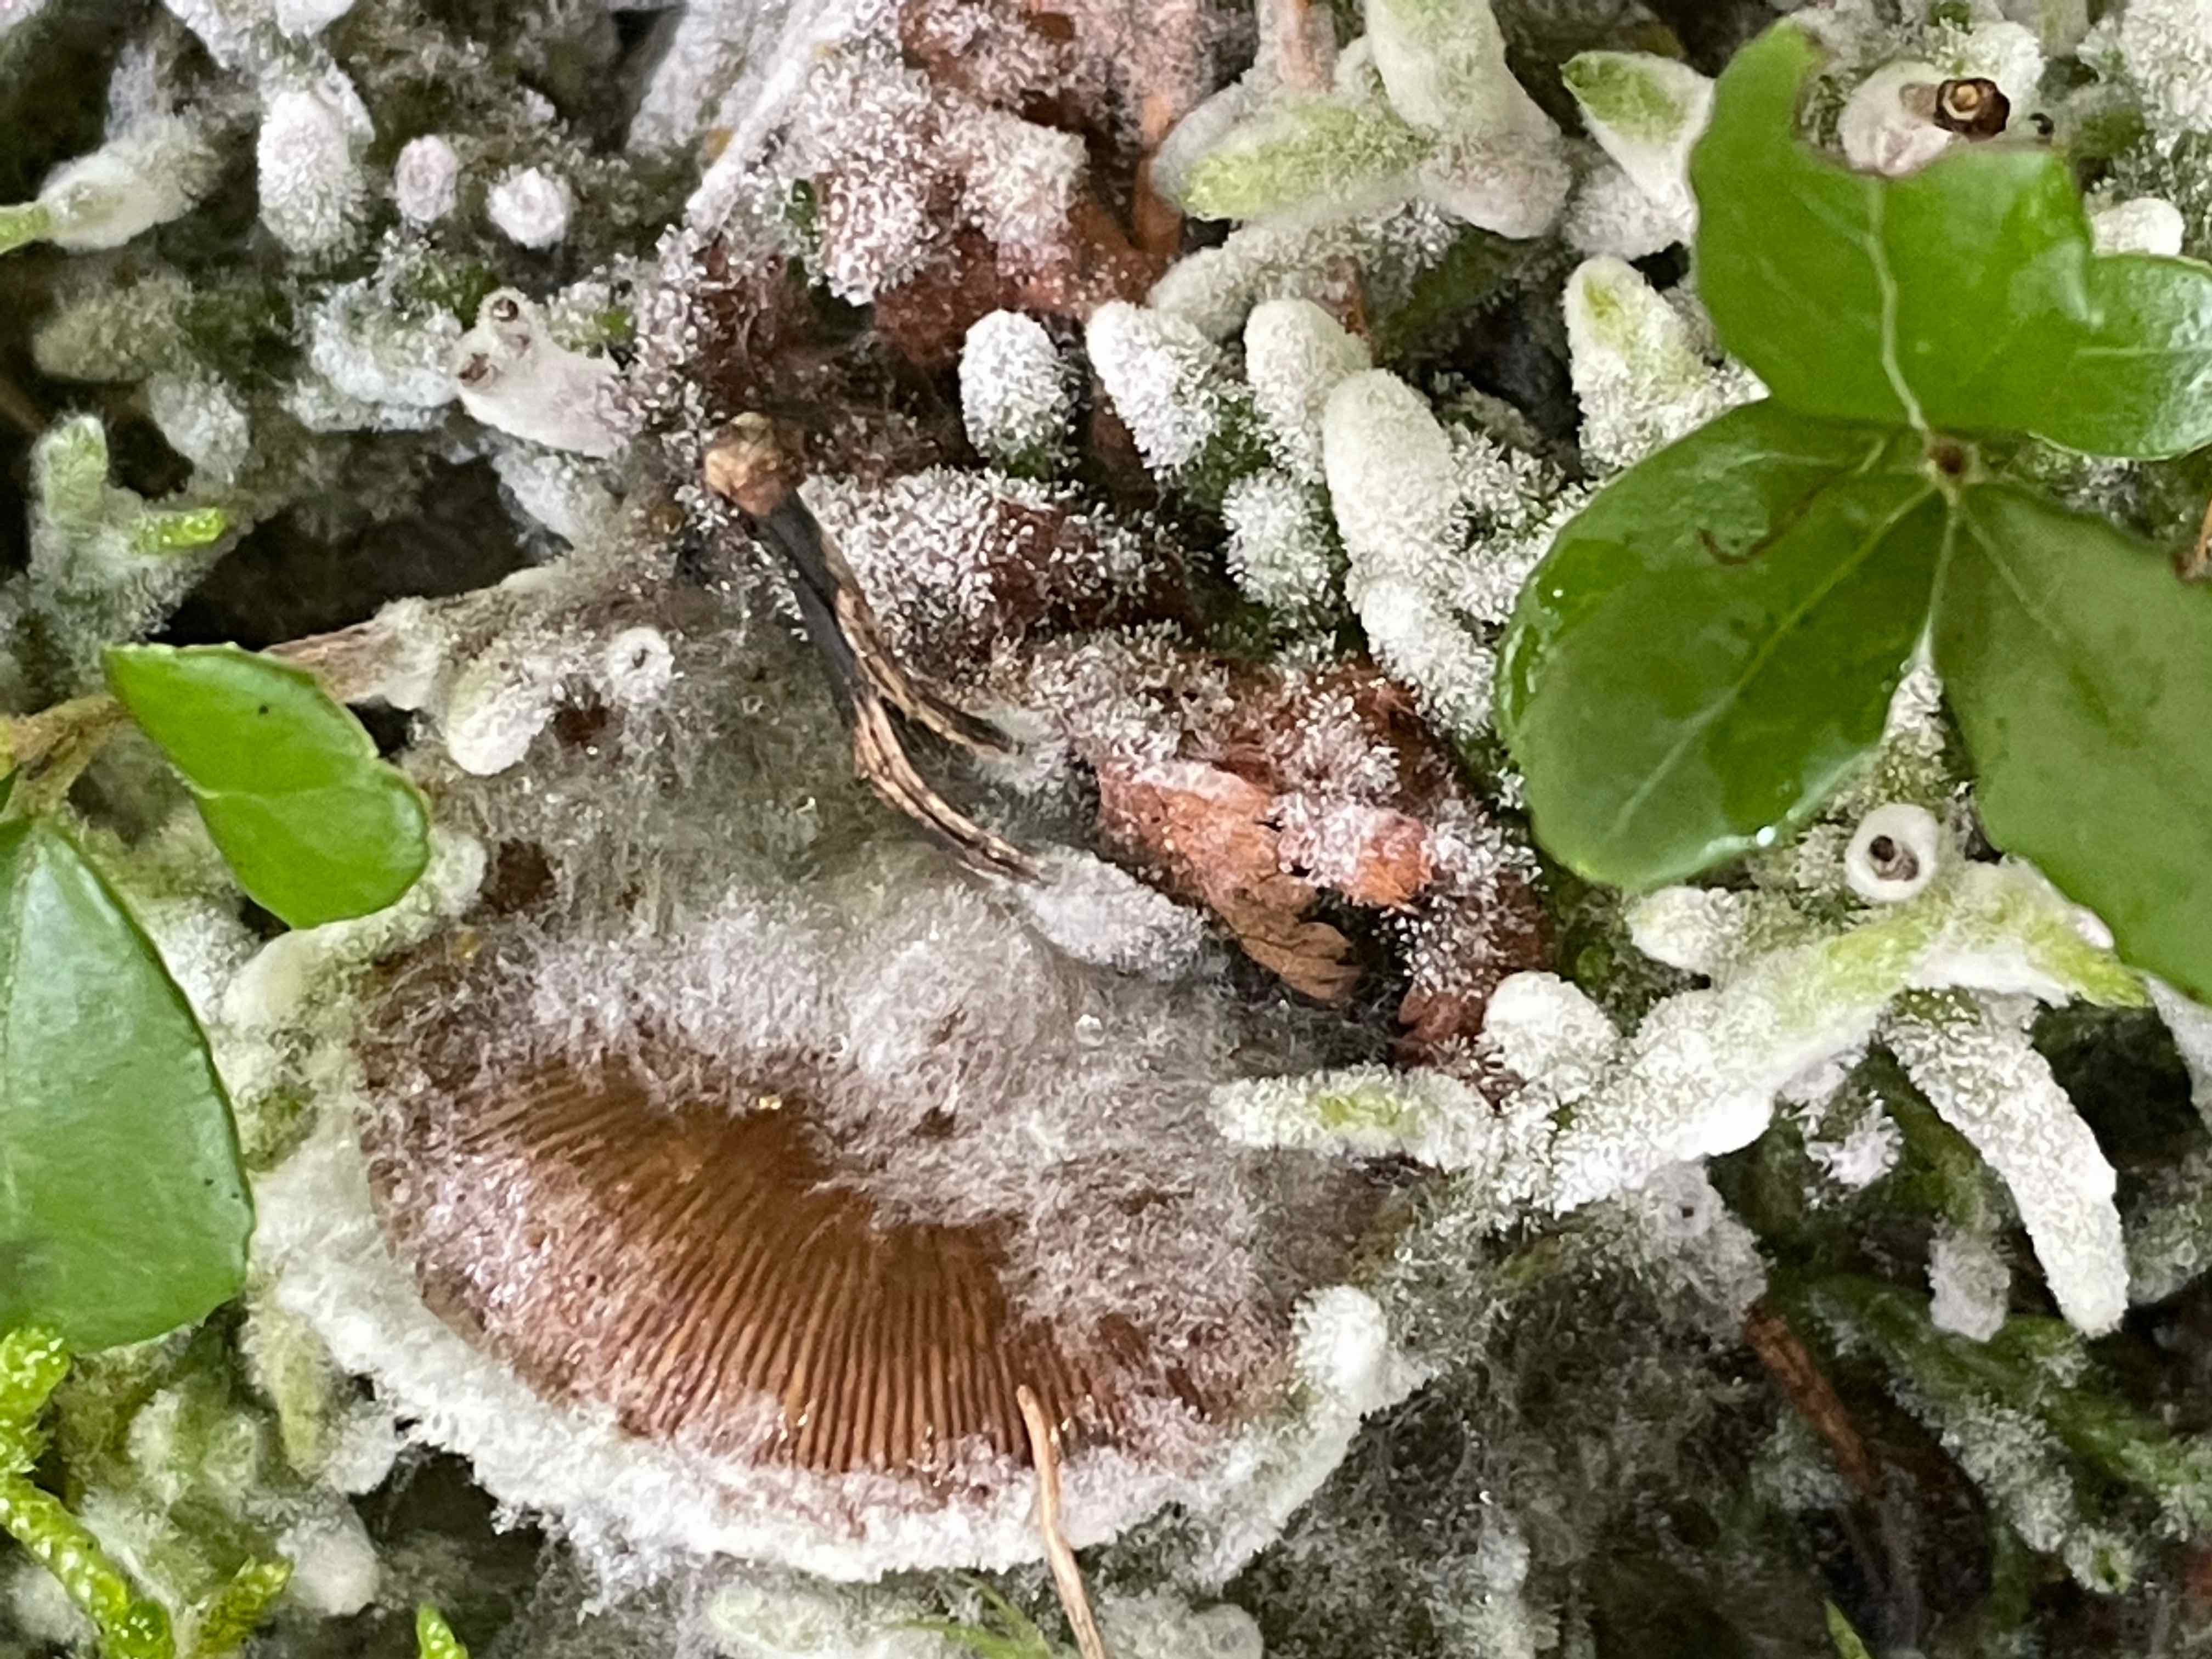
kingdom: Fungi
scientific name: Fungi
